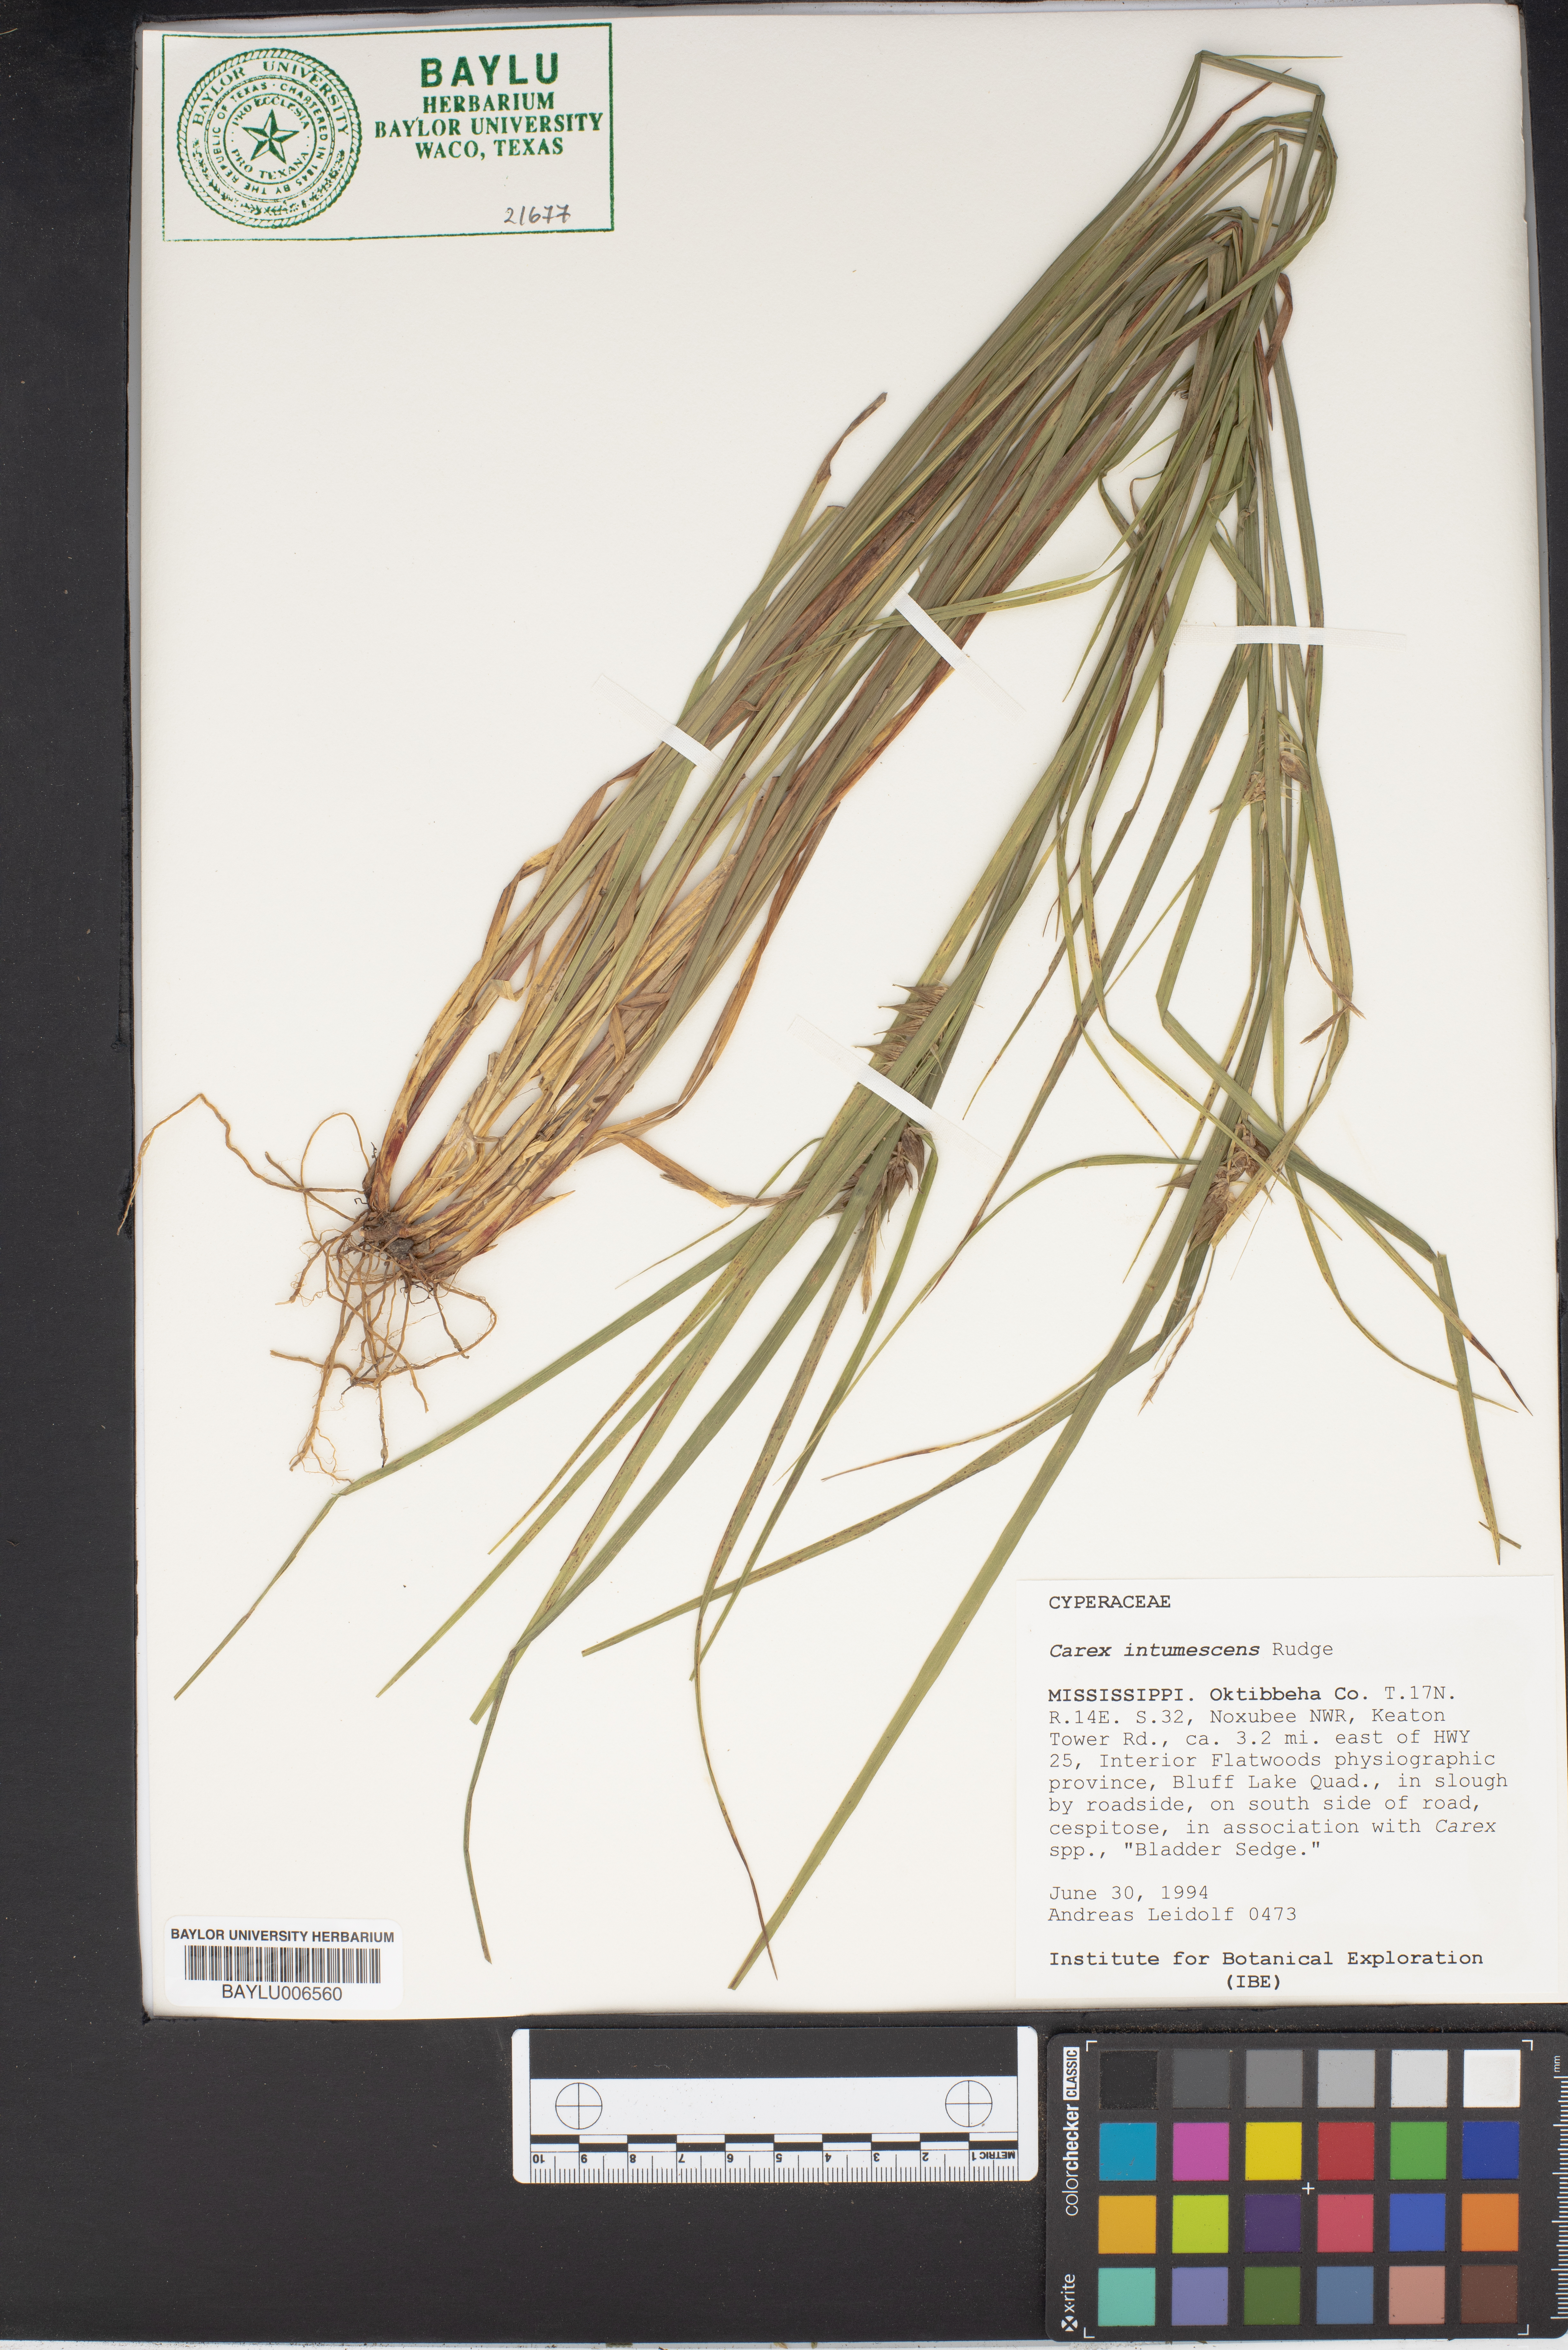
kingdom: Plantae
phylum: Tracheophyta
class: Liliopsida
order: Poales
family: Cyperaceae
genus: Carex
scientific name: Carex intumescens
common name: Greater bladder sedge
